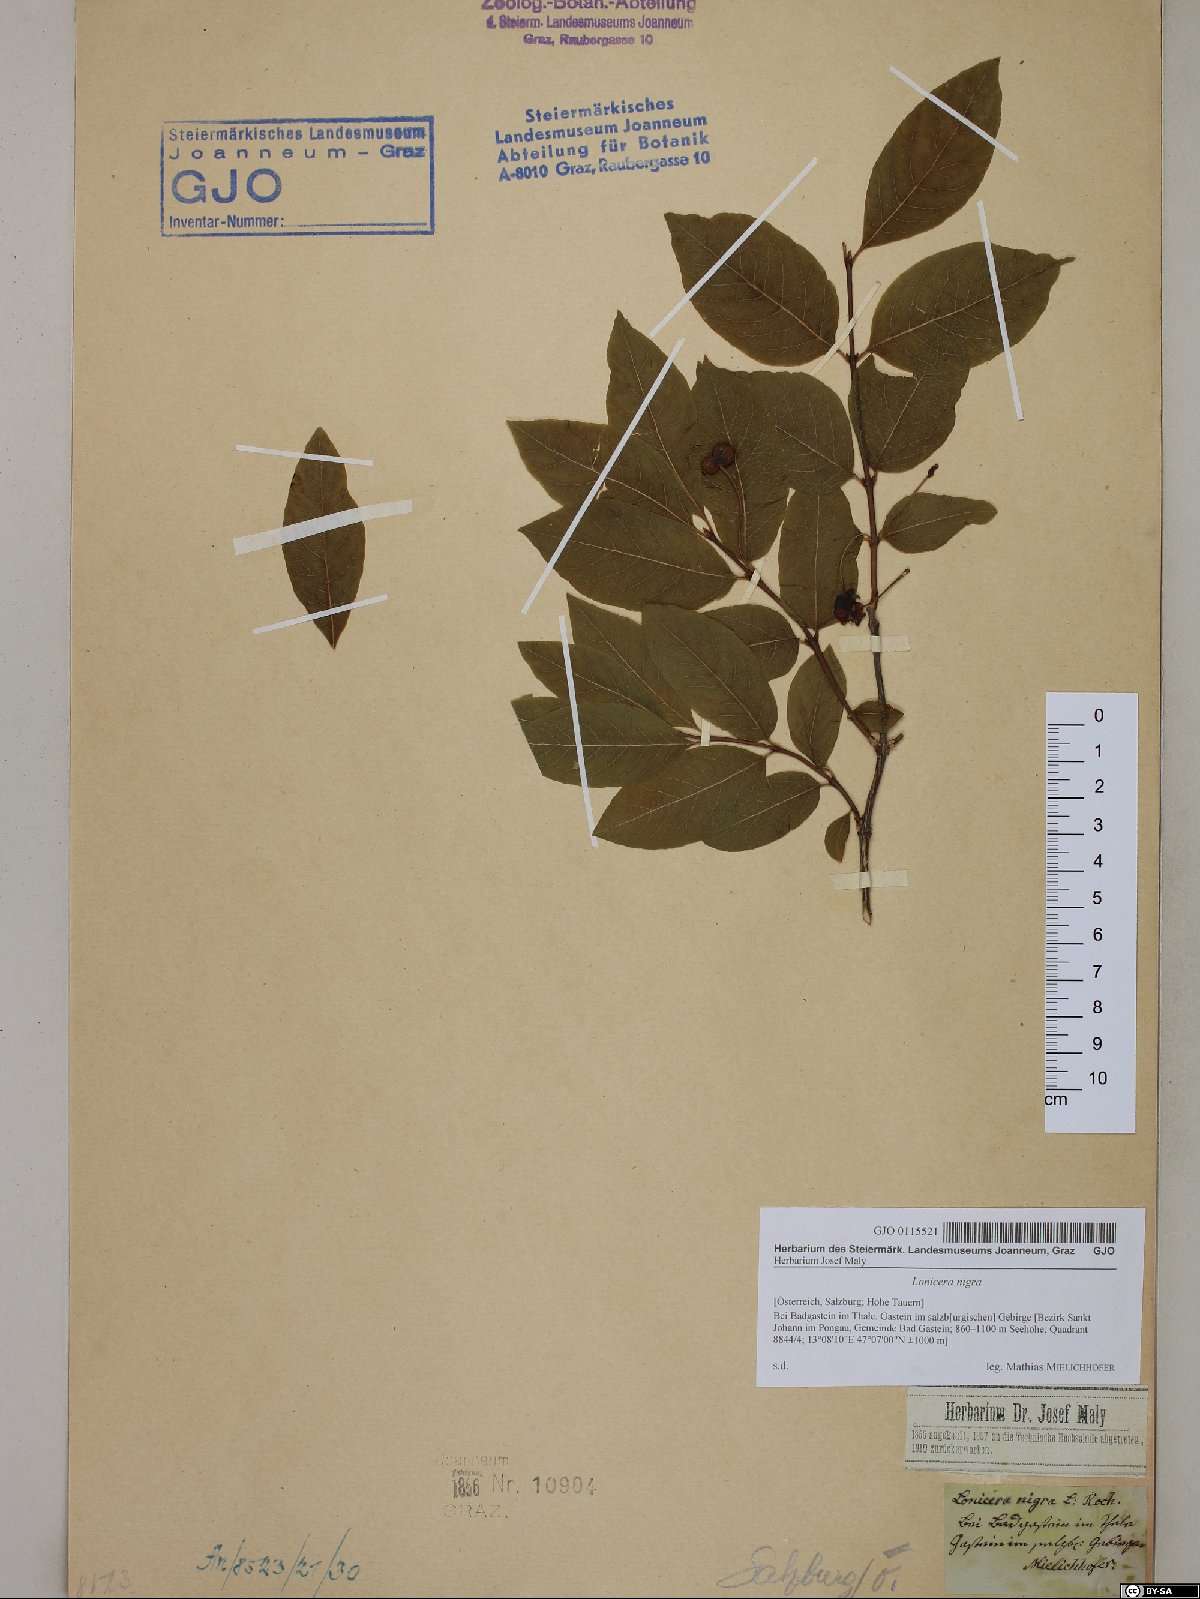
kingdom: Plantae
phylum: Tracheophyta
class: Magnoliopsida
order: Dipsacales
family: Caprifoliaceae
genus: Lonicera
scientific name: Lonicera nigra
